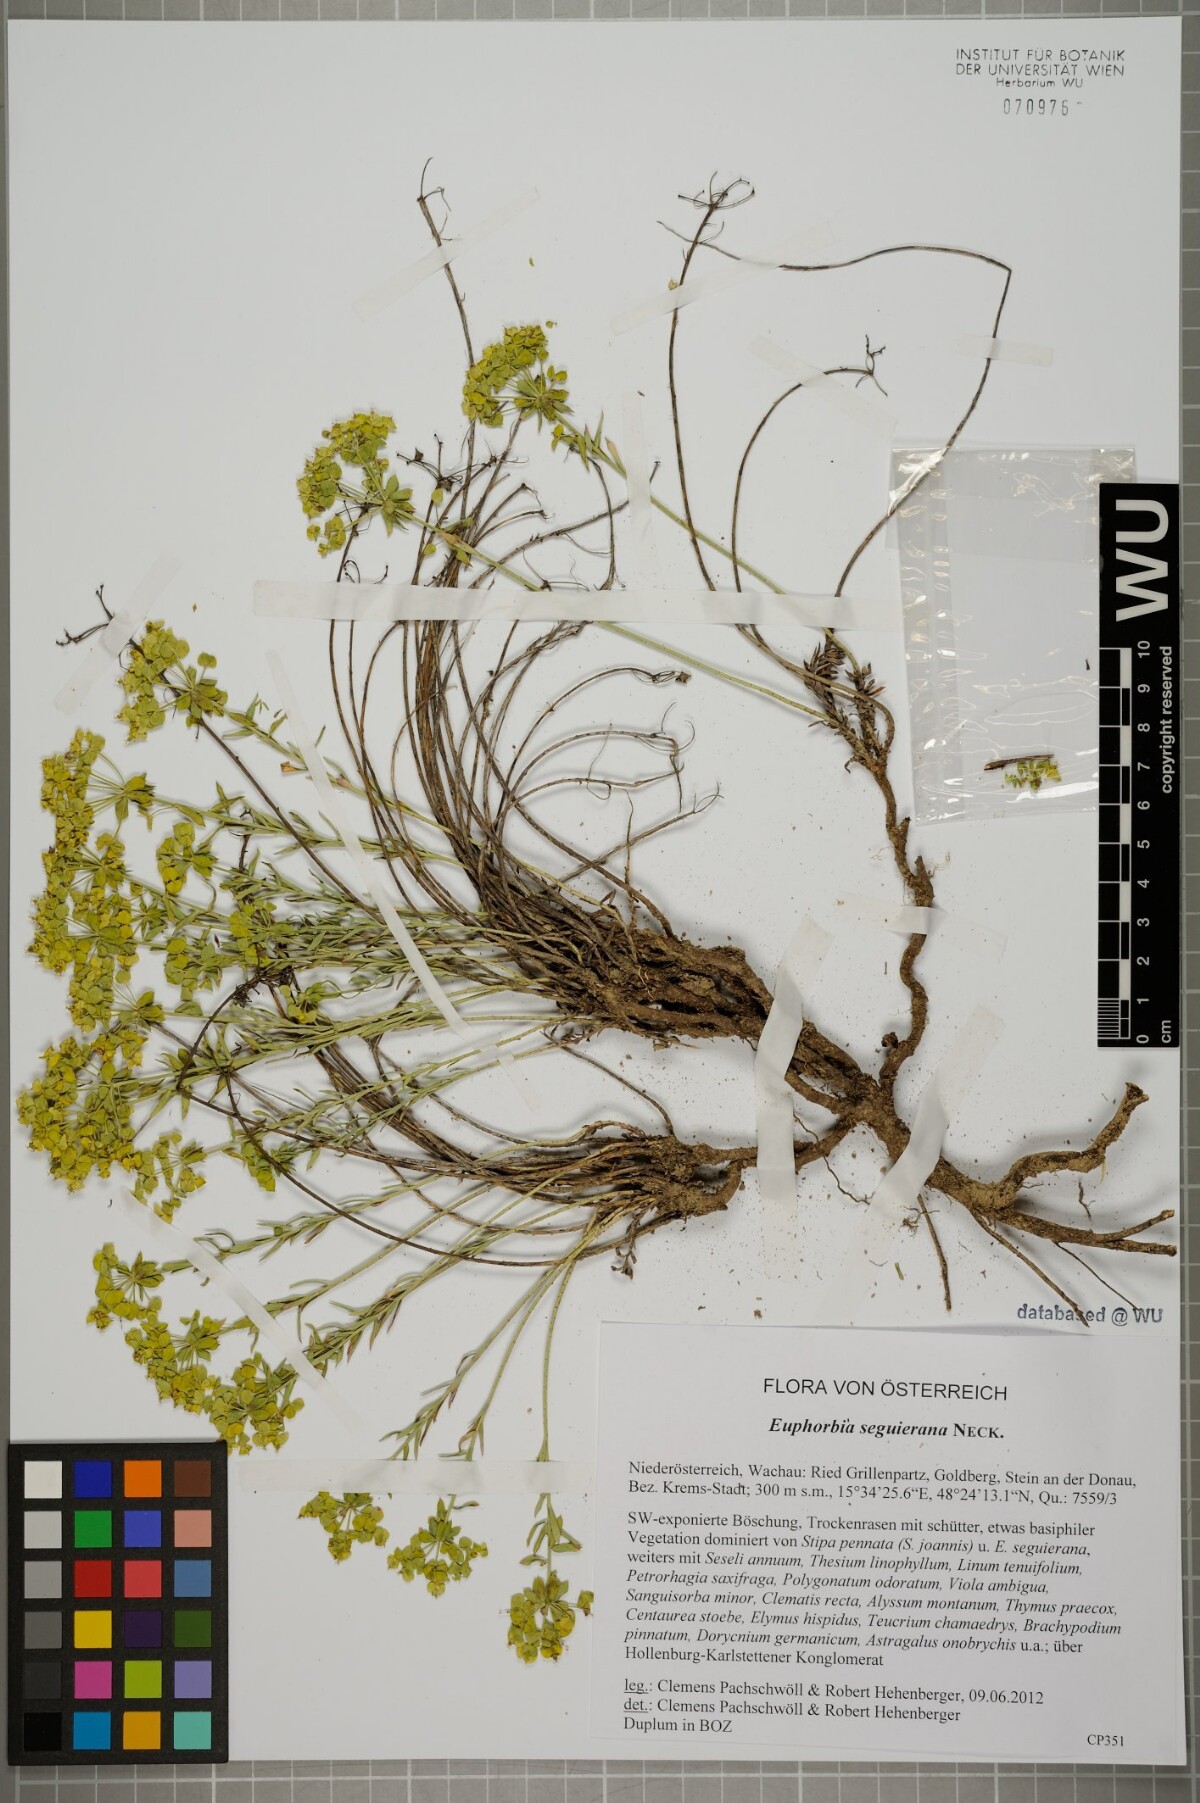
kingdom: Plantae
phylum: Tracheophyta
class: Magnoliopsida
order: Malpighiales
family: Euphorbiaceae
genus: Euphorbia
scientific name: Euphorbia seguieriana
